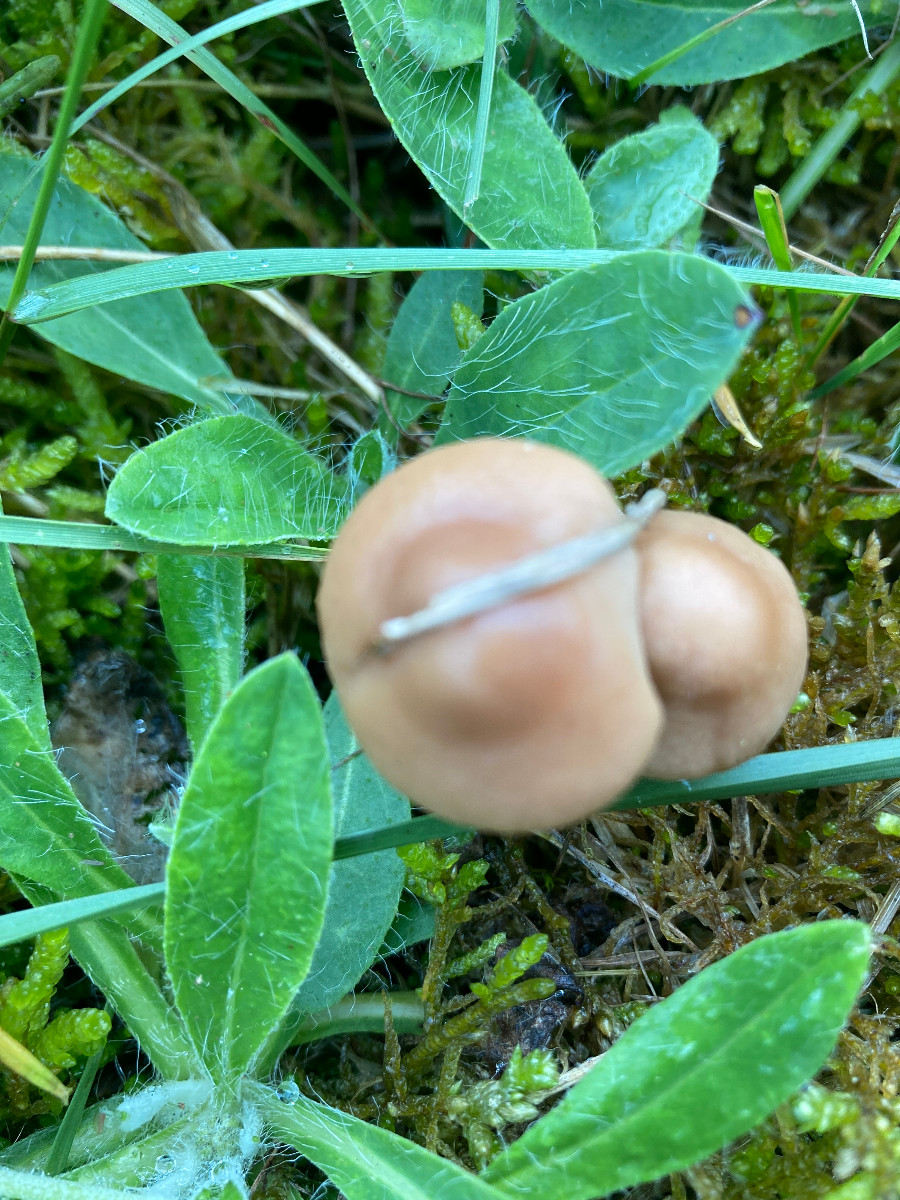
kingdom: Fungi
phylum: Basidiomycota
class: Agaricomycetes
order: Agaricales
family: Marasmiaceae
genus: Marasmius
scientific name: Marasmius oreades
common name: elledans-bruskhat
